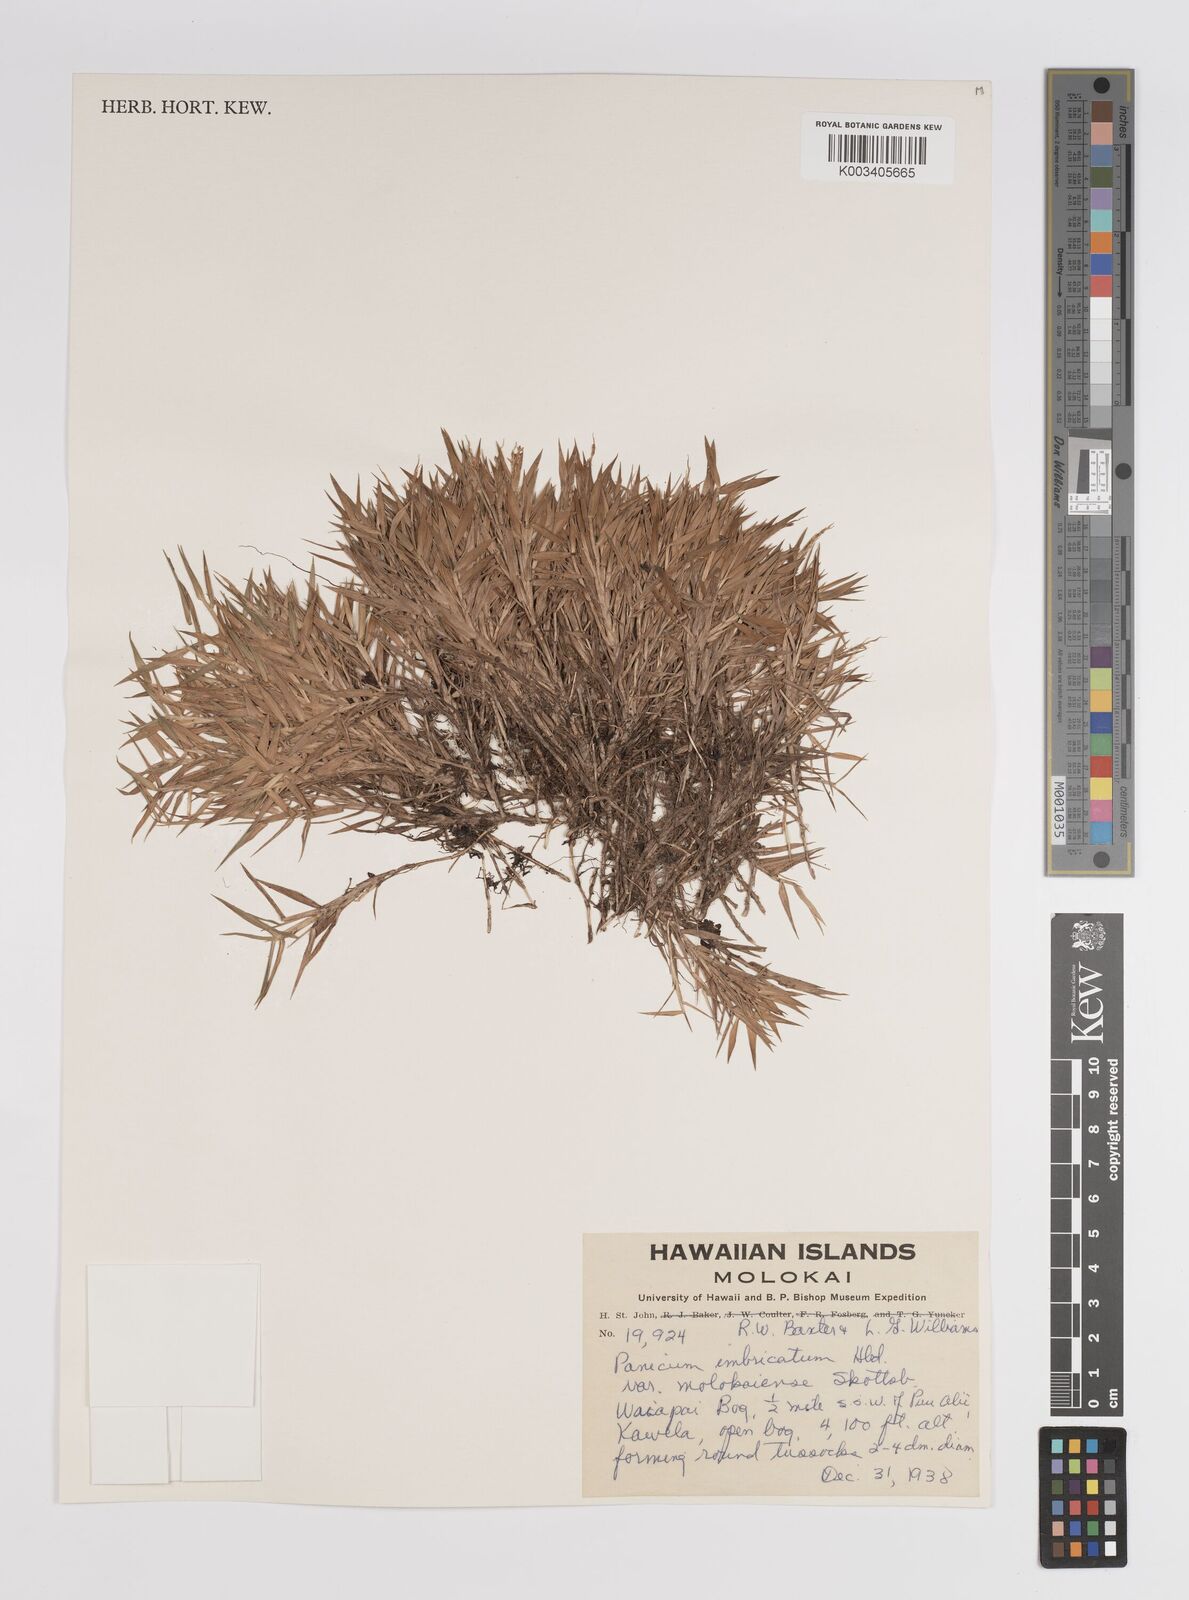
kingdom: Plantae
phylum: Tracheophyta
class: Liliopsida
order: Poales
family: Poaceae
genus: Dichanthelium
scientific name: Dichanthelium hillebrandianum
